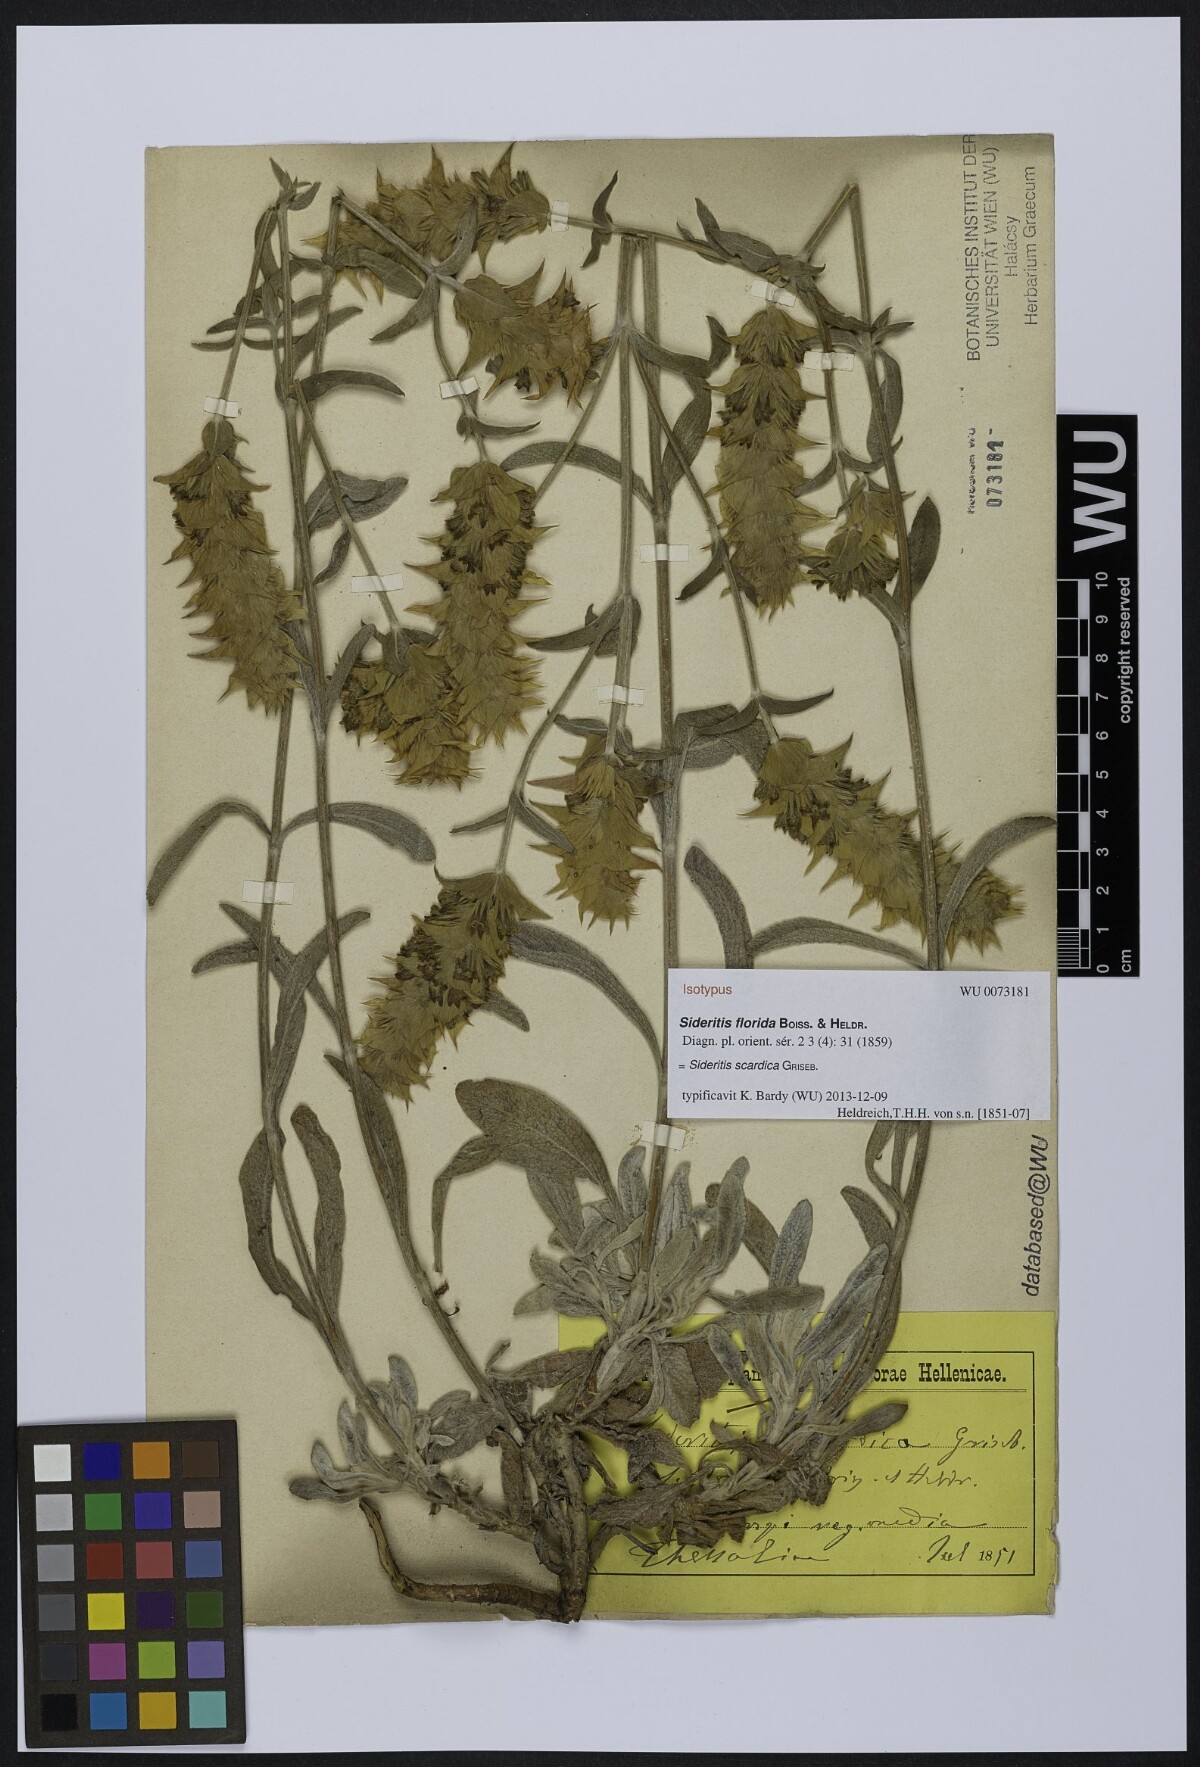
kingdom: Plantae
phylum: Tracheophyta
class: Magnoliopsida
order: Lamiales
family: Lamiaceae
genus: Sideritis
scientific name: Sideritis scardica
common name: Greek mountain tea
